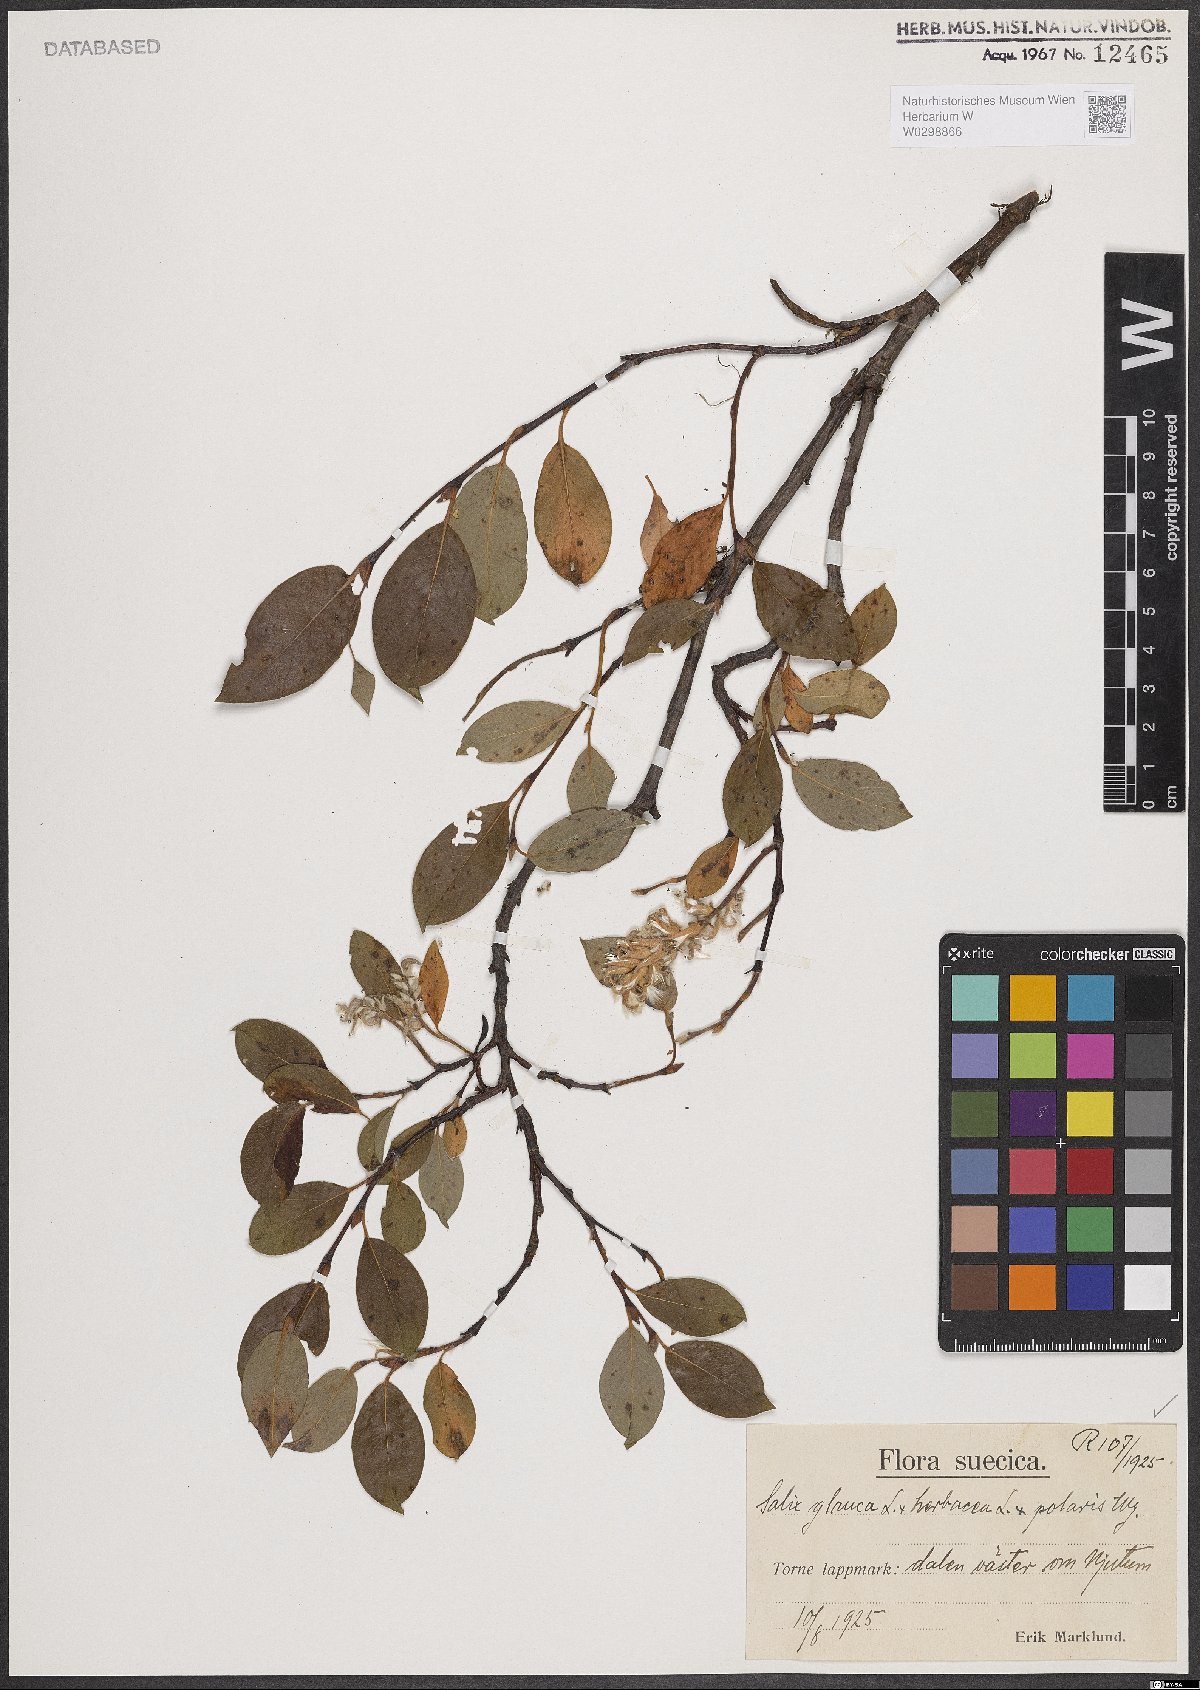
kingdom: Plantae
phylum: Tracheophyta
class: Magnoliopsida
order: Malpighiales
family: Salicaceae
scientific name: Salicaceae
